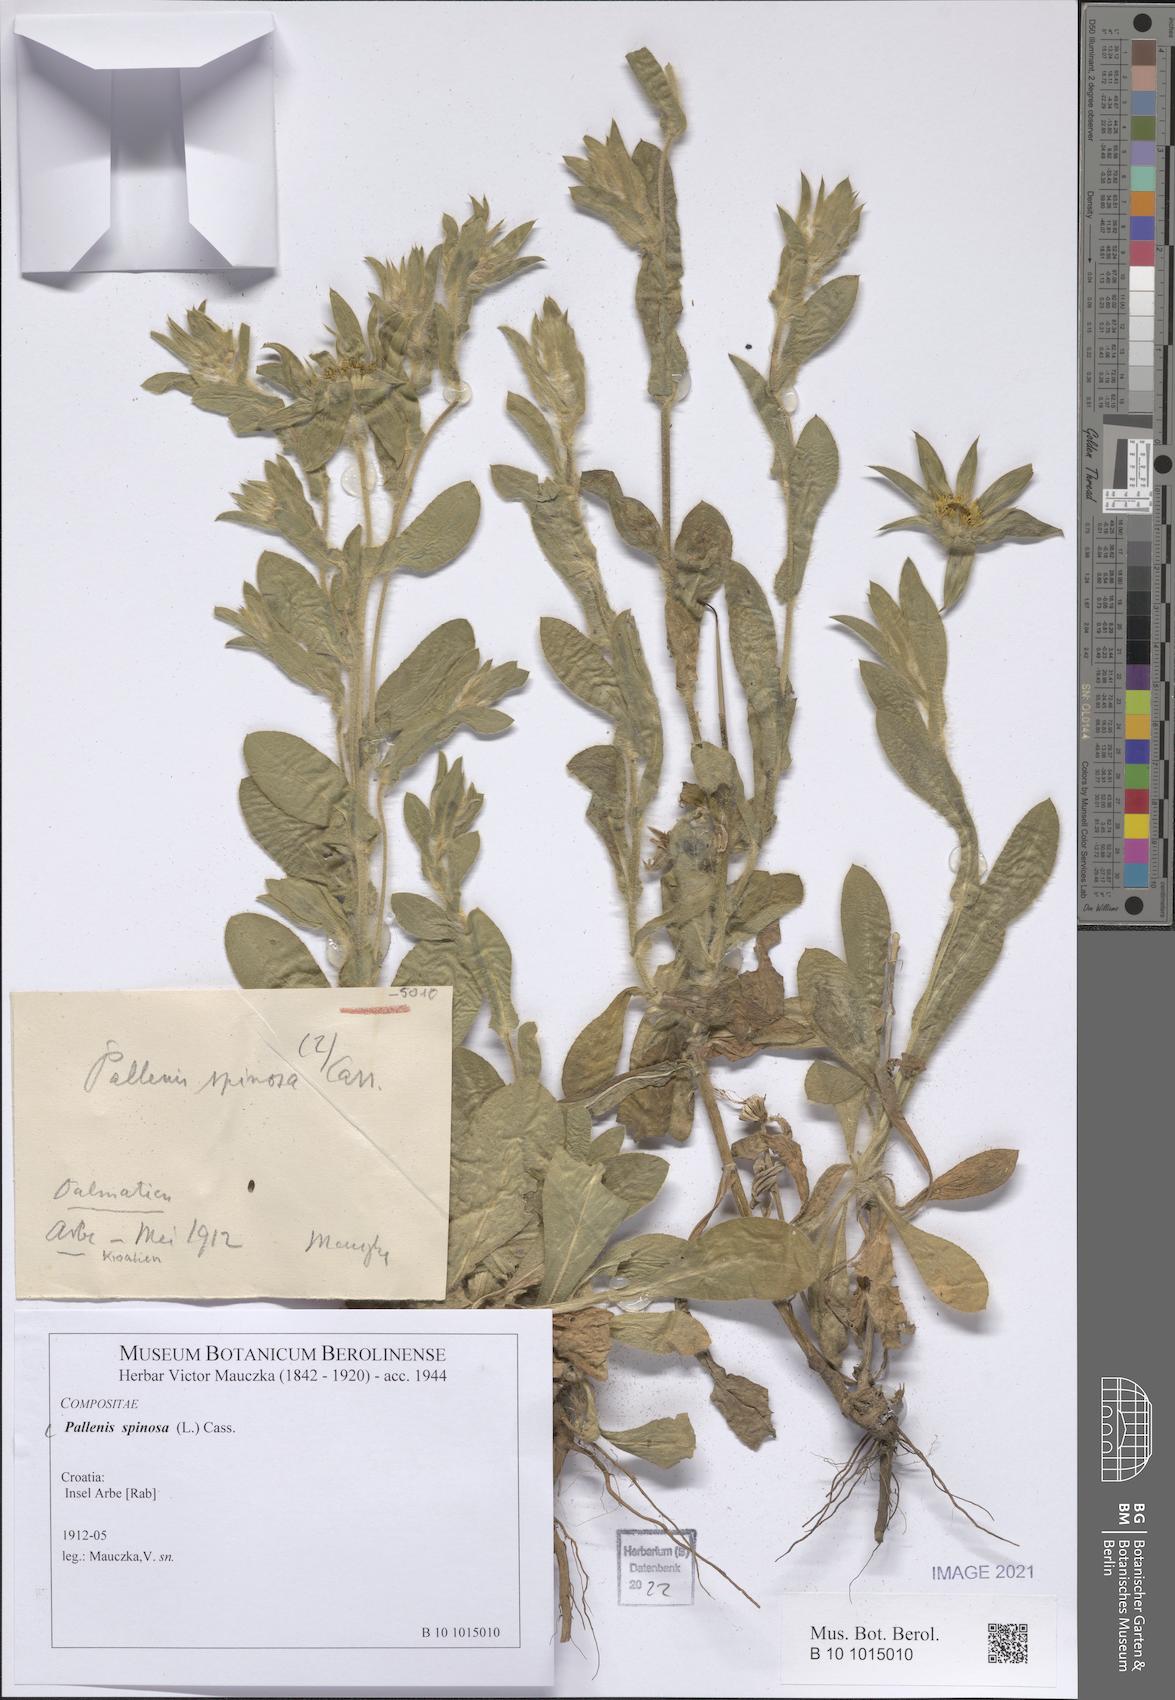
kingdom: Plantae
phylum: Tracheophyta
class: Magnoliopsida
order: Asterales
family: Asteraceae
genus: Pallenis
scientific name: Pallenis spinosa
